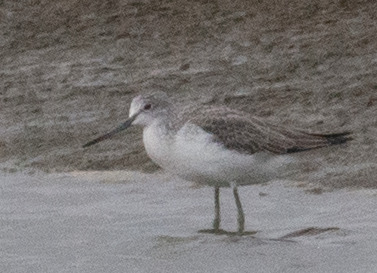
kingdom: Animalia
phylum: Chordata
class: Aves
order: Charadriiformes
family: Scolopacidae
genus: Tringa
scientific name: Tringa nebularia
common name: Hvidklire
